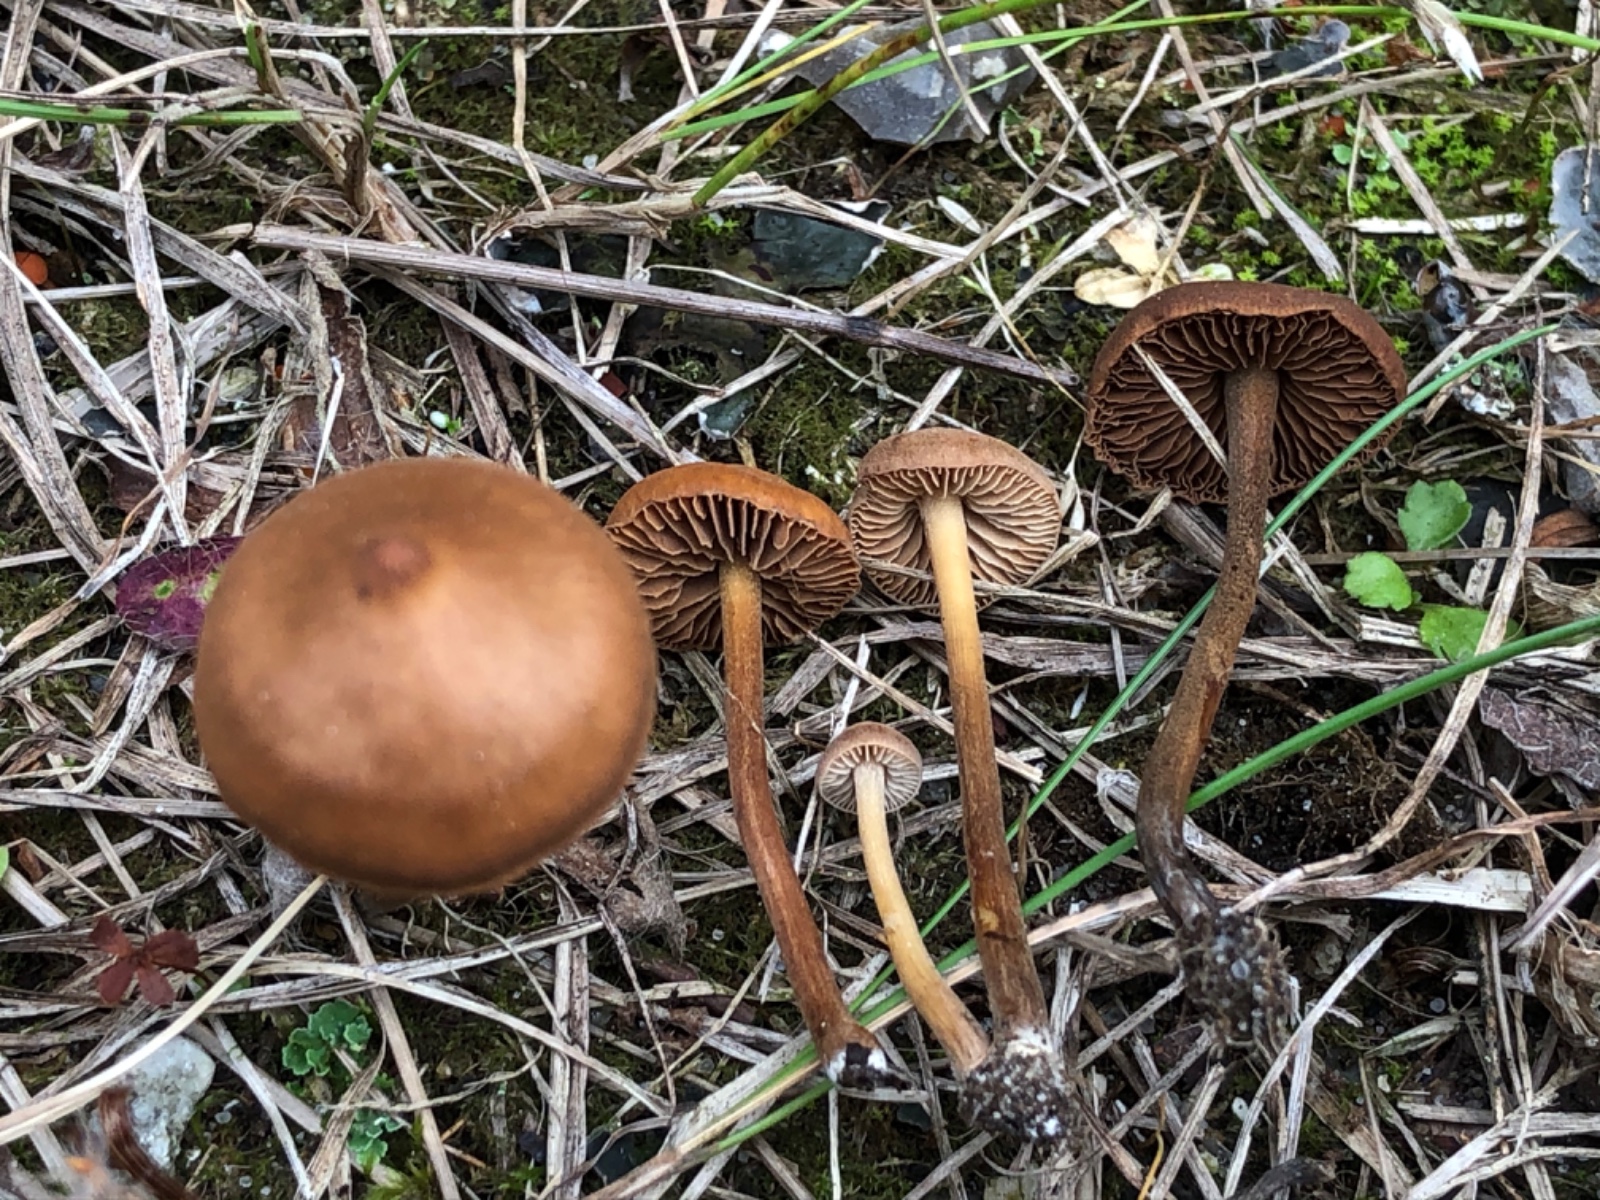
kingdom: Fungi
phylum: Basidiomycota
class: Agaricomycetes
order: Agaricales
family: Hymenogastraceae
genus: Naucoria
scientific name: Naucoria amarescens
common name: bitter knaphat
